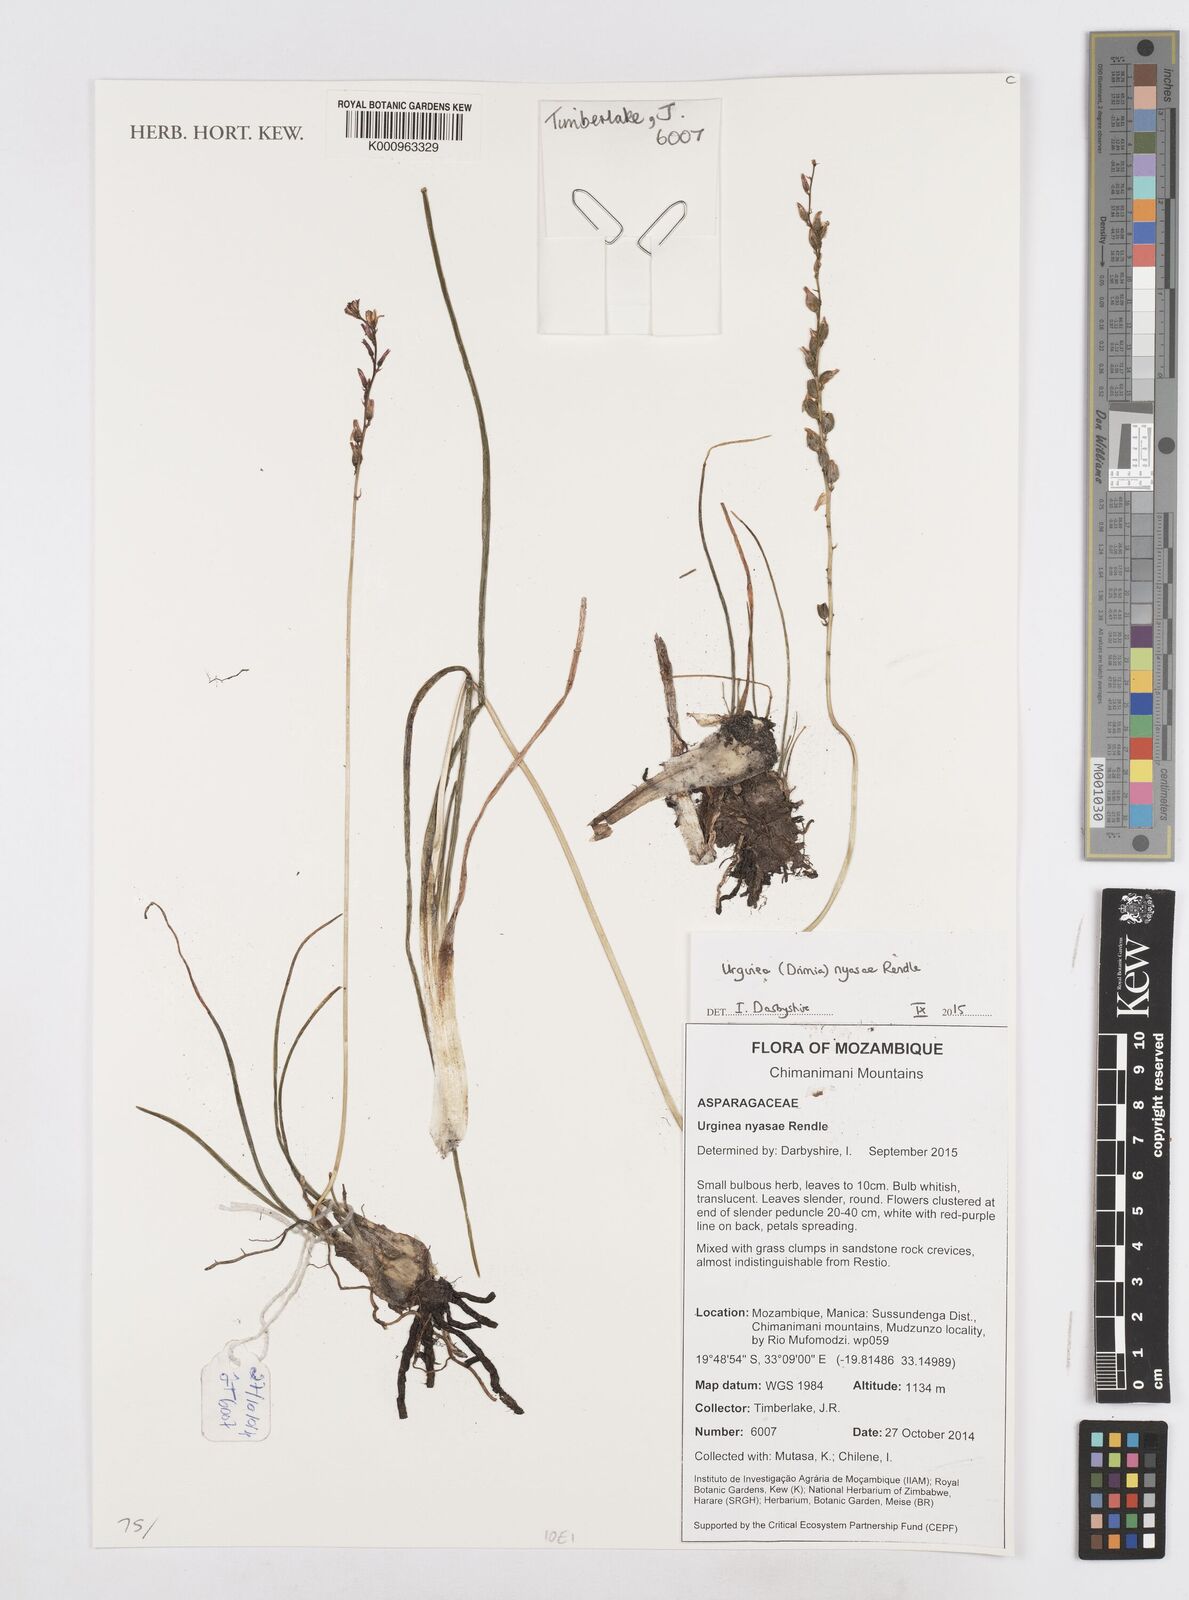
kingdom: Plantae
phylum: Tracheophyta
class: Liliopsida
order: Asparagales
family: Asparagaceae
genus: Drimia
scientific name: Drimia
